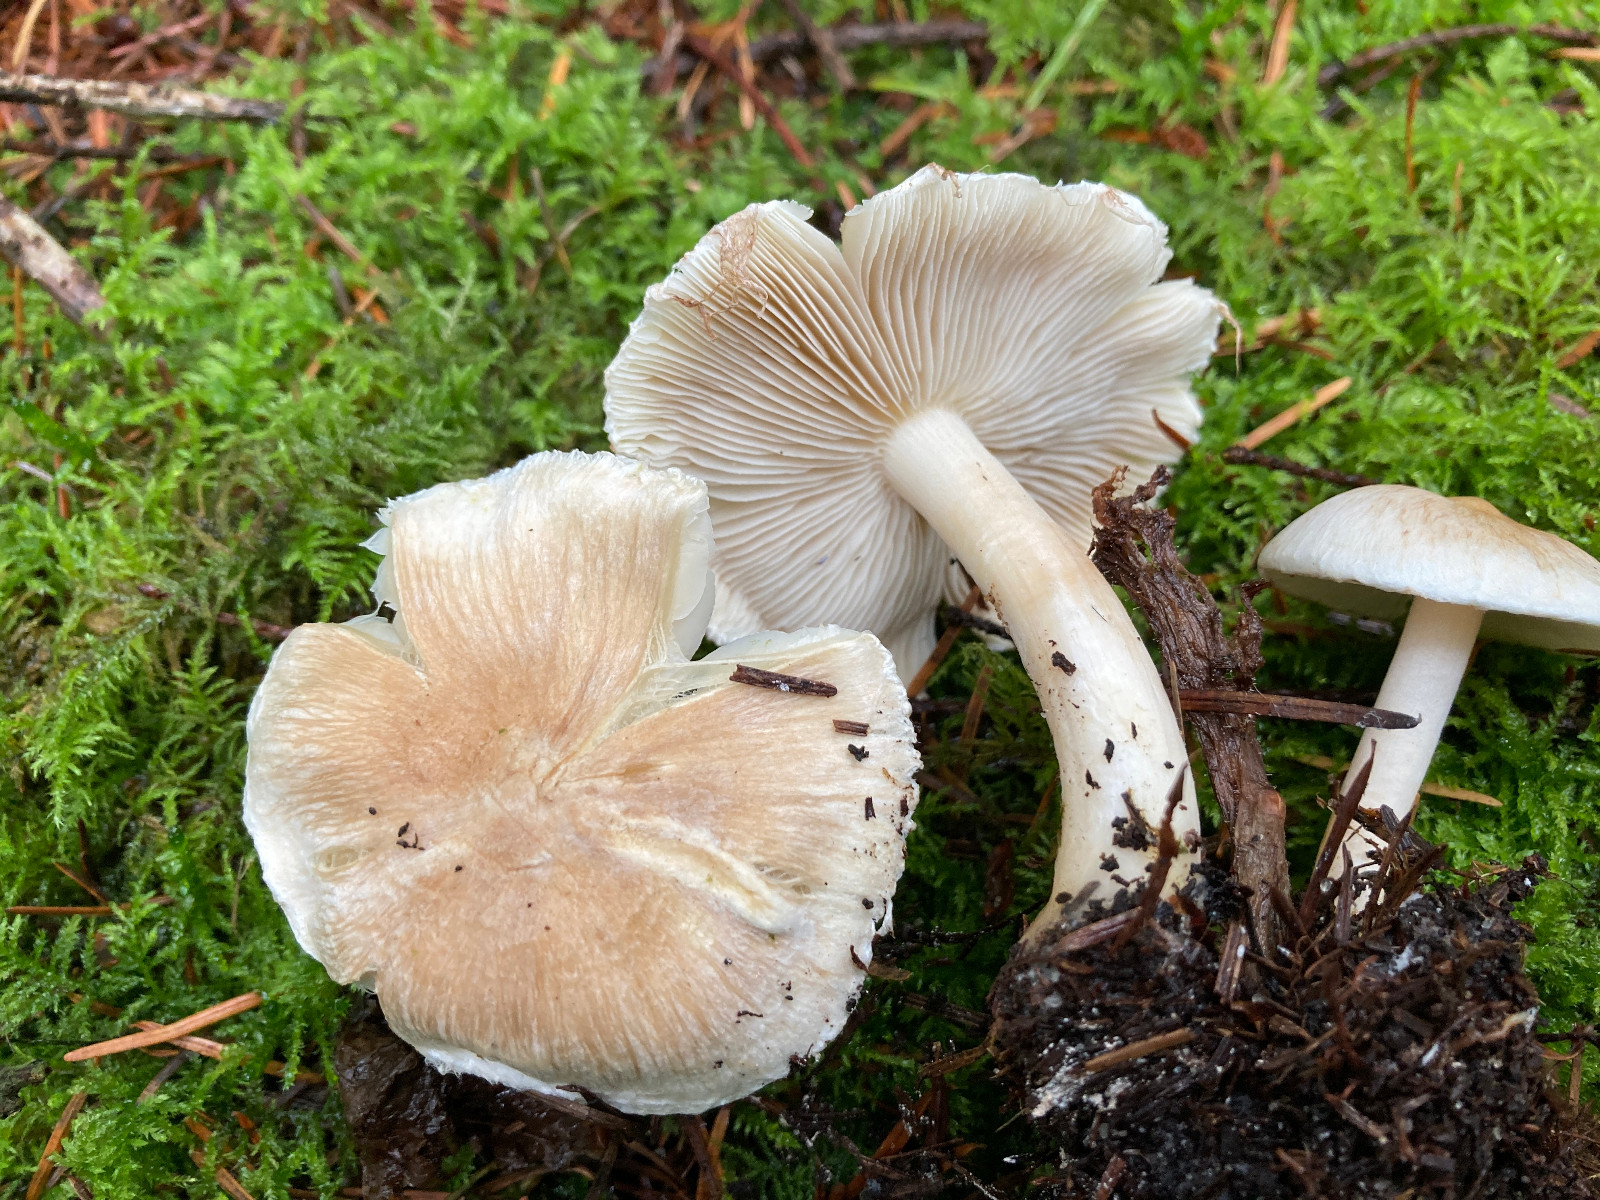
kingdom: Fungi
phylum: Basidiomycota
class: Agaricomycetes
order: Agaricales
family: Inocybaceae
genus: Inocybe
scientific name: Inocybe
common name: trævlhat
